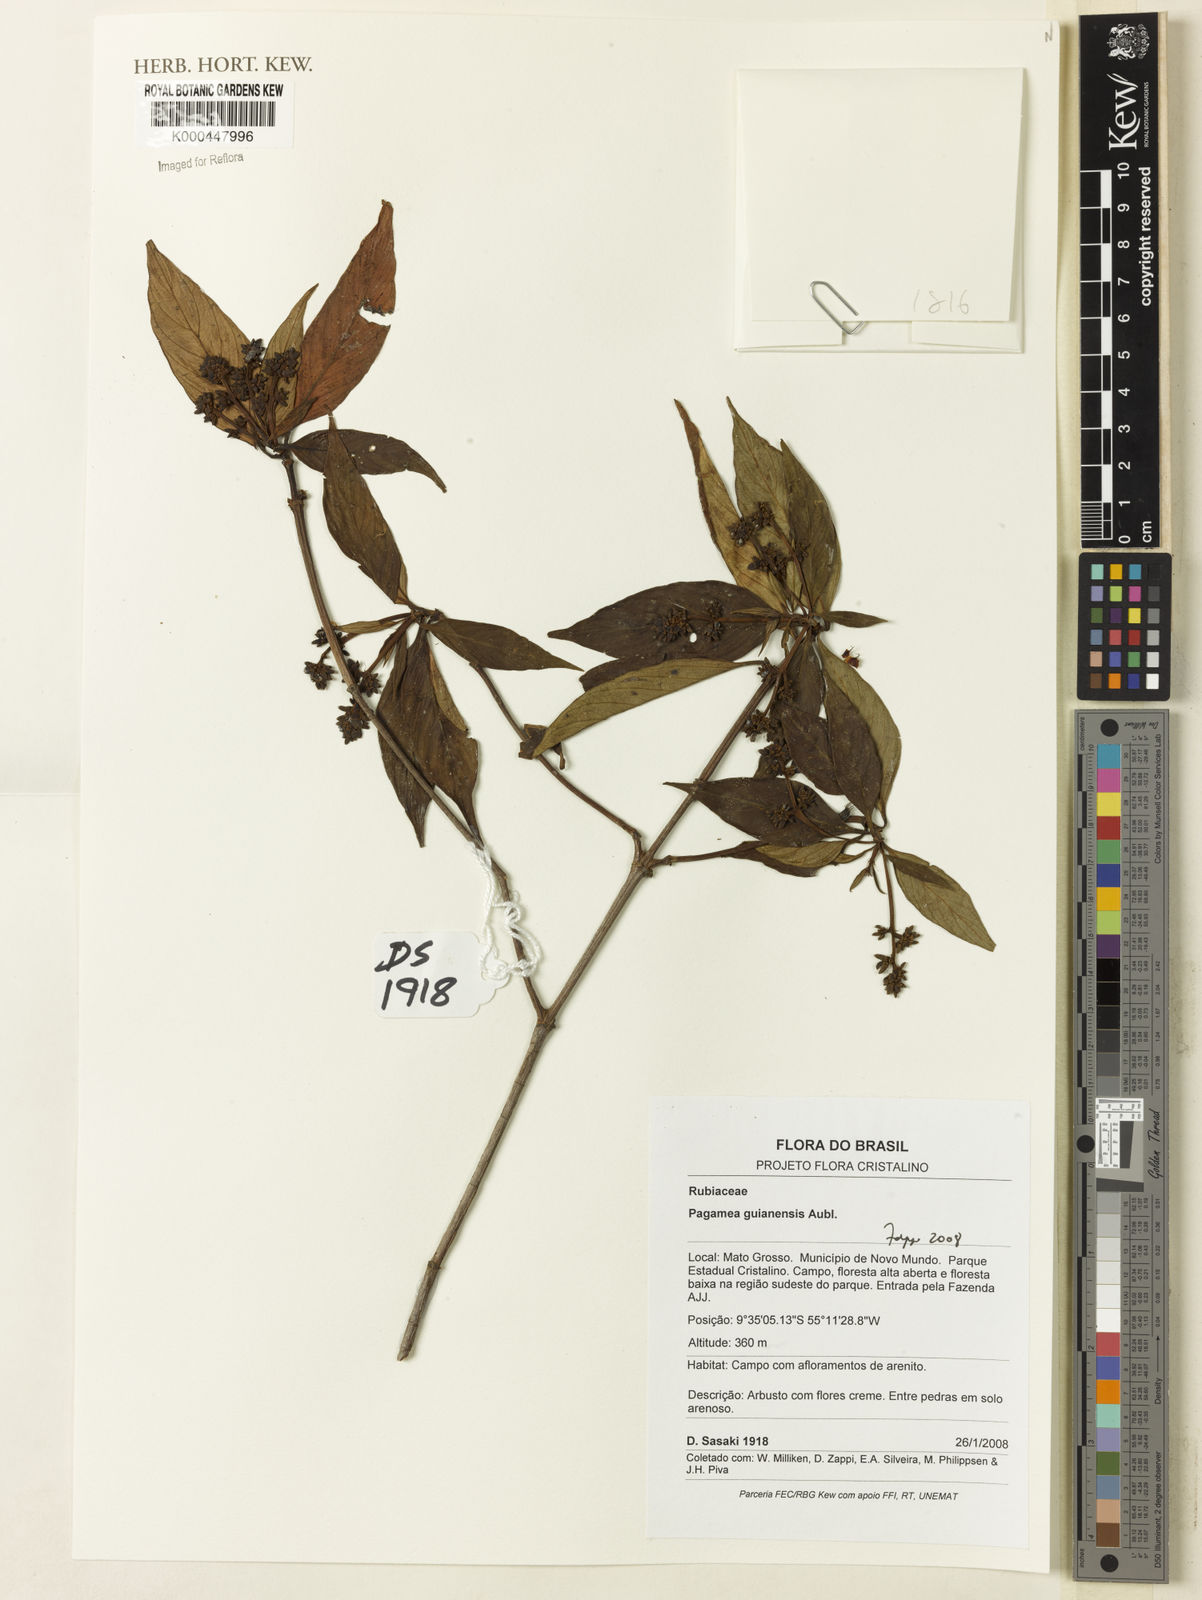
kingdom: Plantae
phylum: Tracheophyta
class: Magnoliopsida
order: Gentianales
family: Rubiaceae
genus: Pagamea
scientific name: Pagamea guianensis
